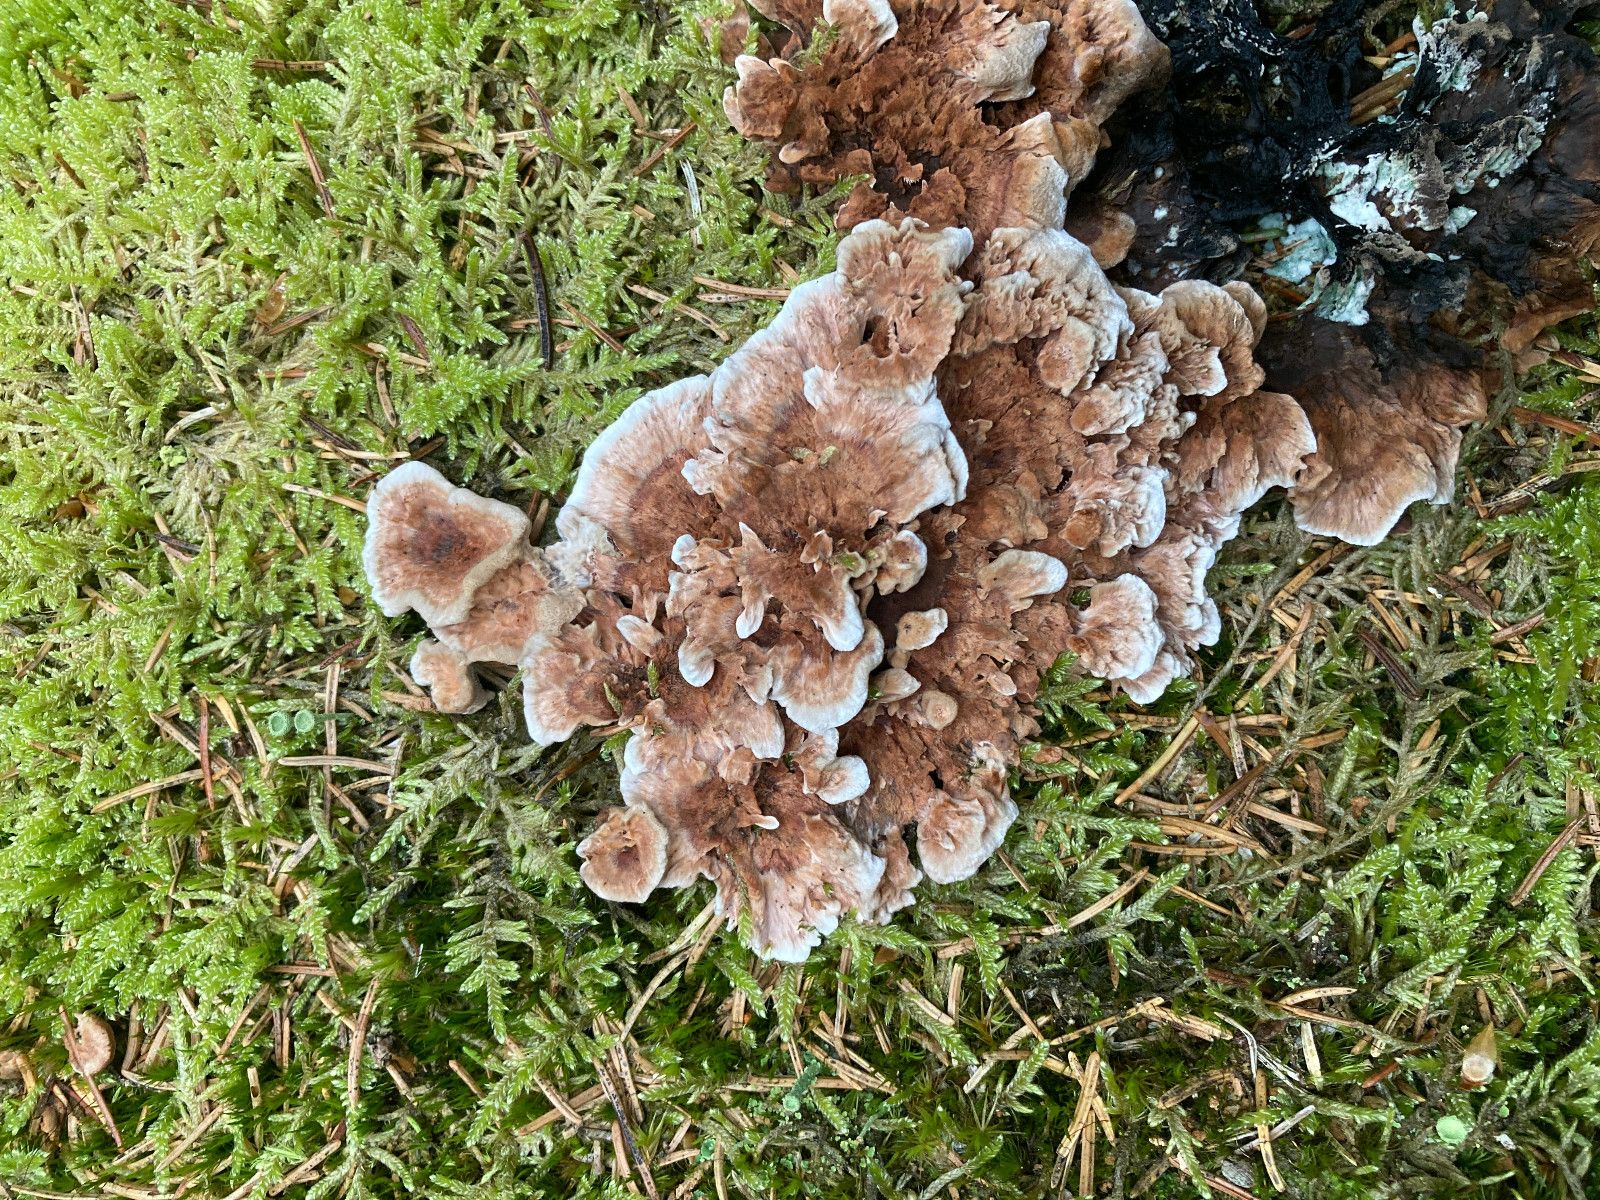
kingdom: Fungi
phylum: Basidiomycota
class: Agaricomycetes
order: Thelephorales
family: Bankeraceae
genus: Hydnellum
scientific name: Hydnellum concrescens
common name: Zoned tooth
